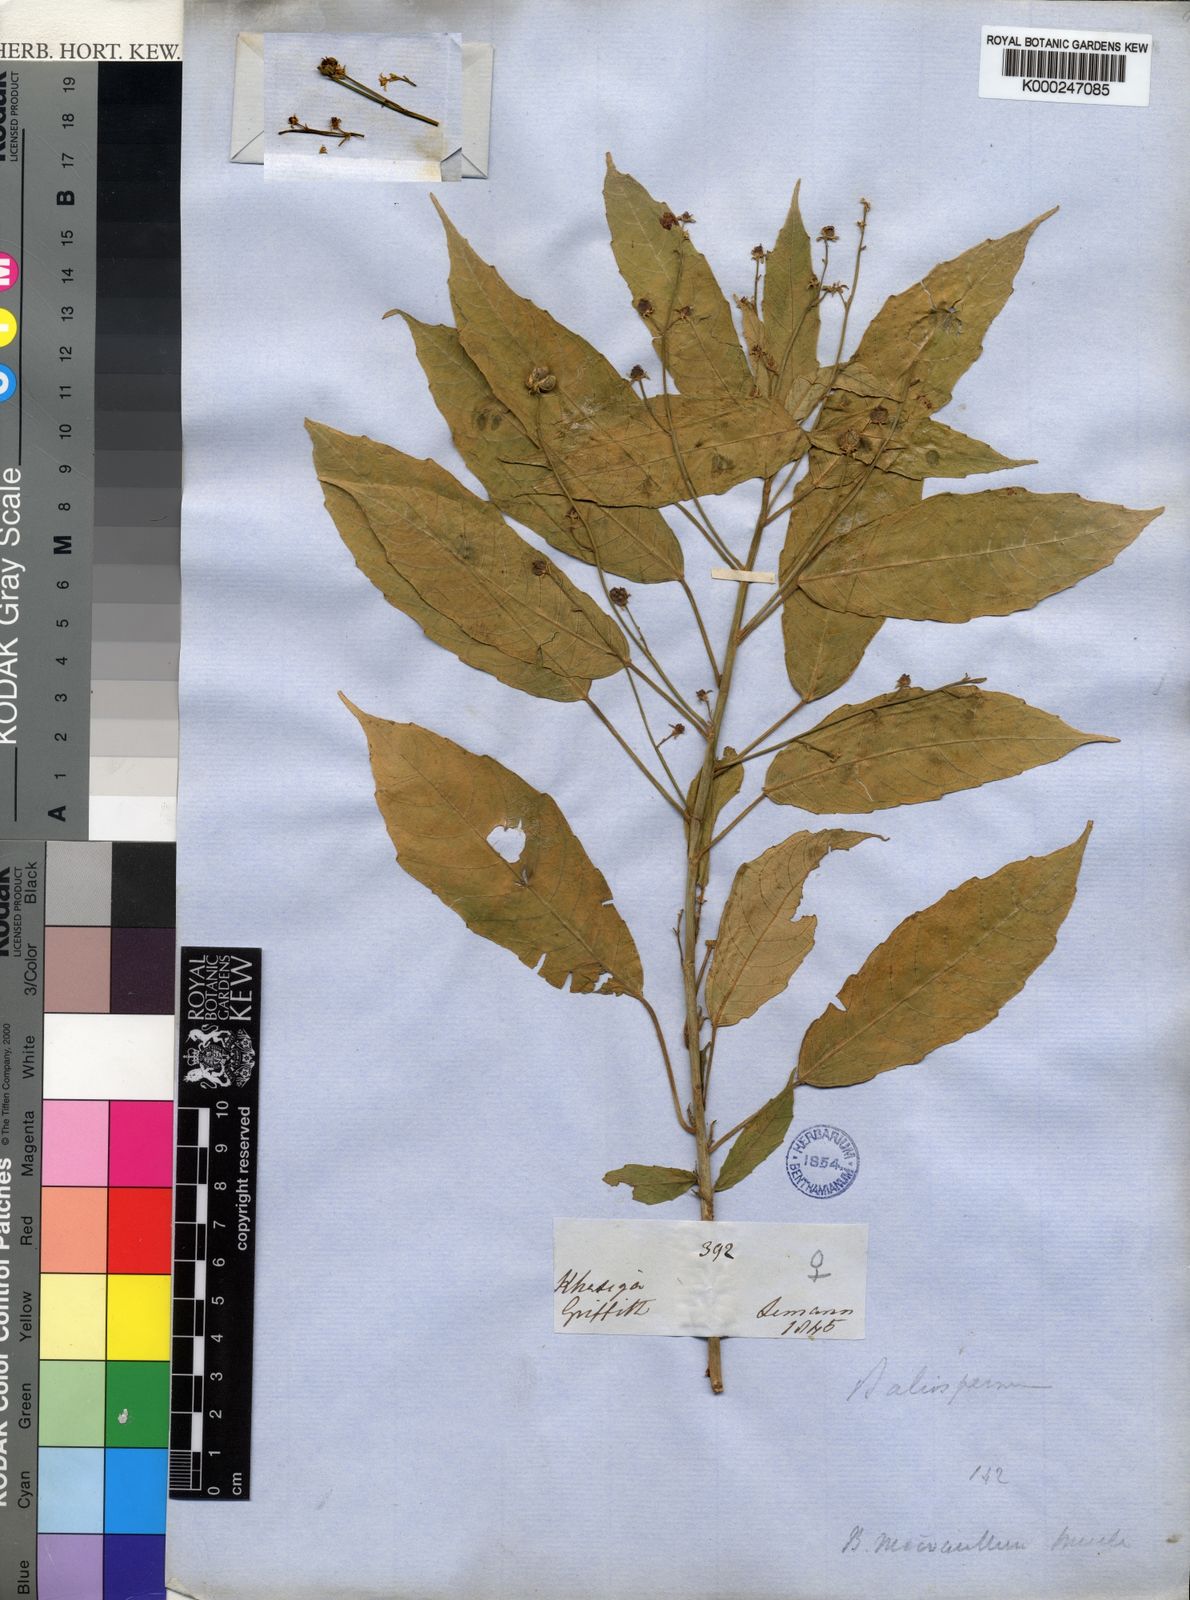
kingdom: Plantae
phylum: Tracheophyta
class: Magnoliopsida
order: Malpighiales
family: Euphorbiaceae
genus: Baliospermum
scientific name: Baliospermum
